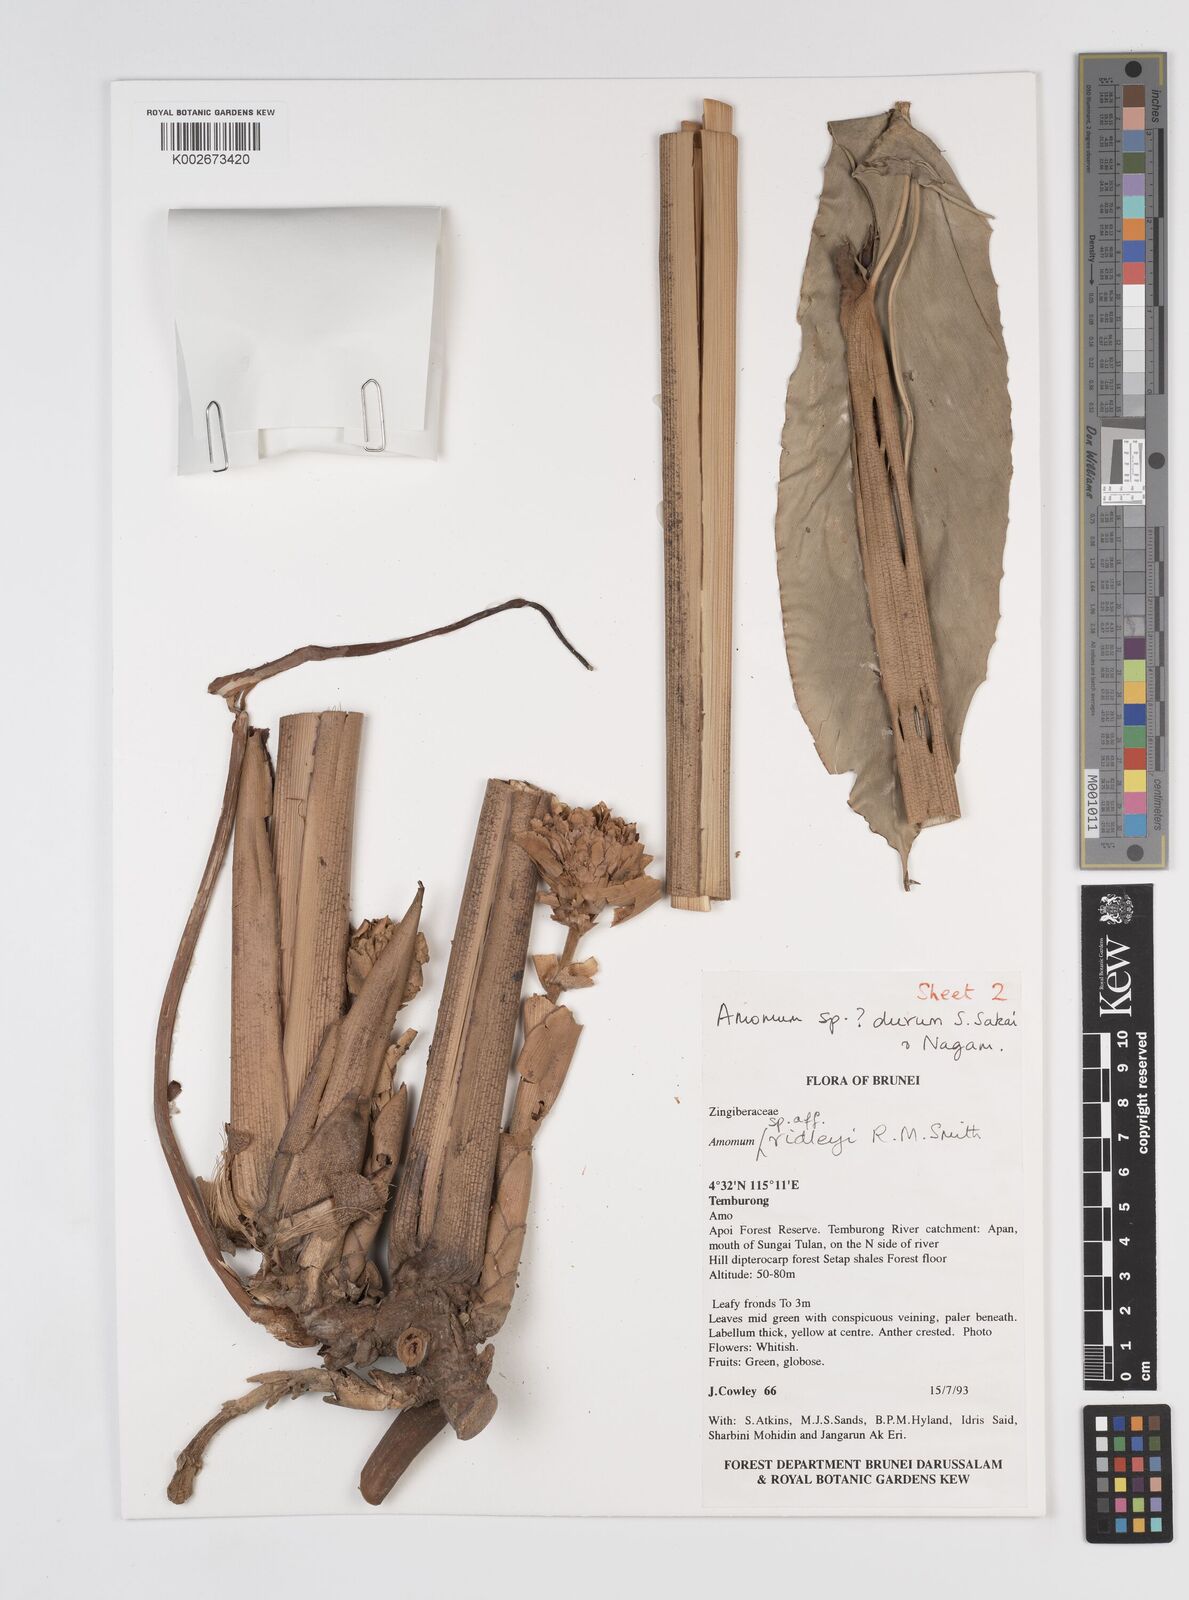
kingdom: Plantae
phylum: Tracheophyta
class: Liliopsida
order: Zingiberales
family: Zingiberaceae
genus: Sundamomum
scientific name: Sundamomum durum
